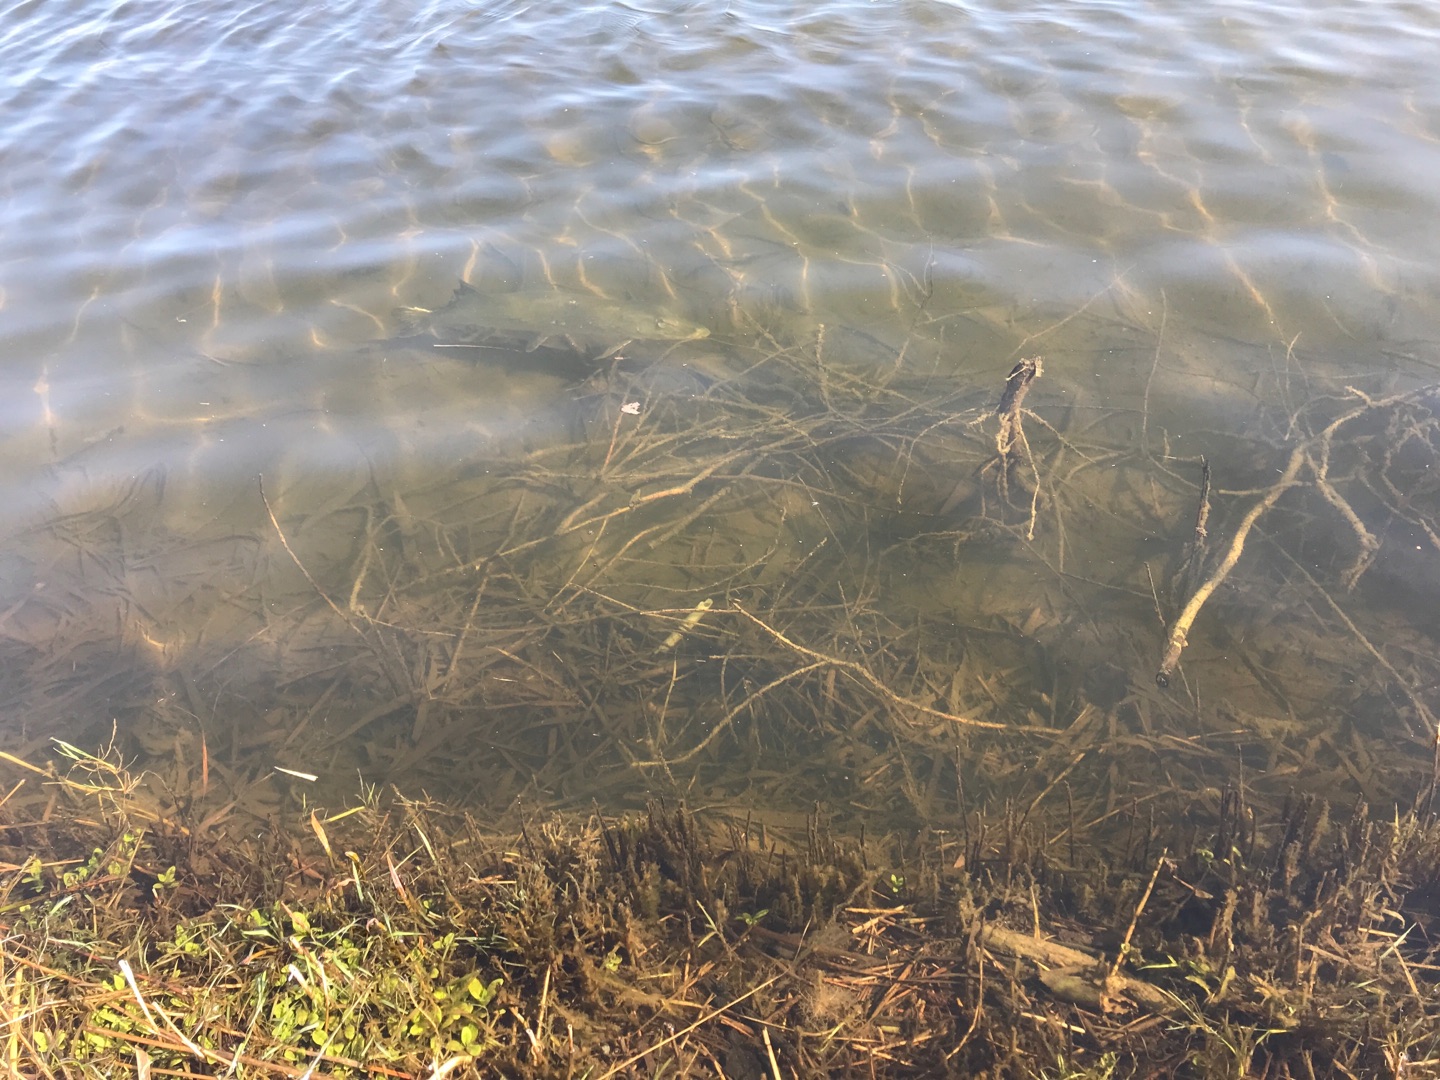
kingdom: Animalia
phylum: Chordata
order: Esociformes
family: Esocidae
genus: Esox
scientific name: Esox lucius
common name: Gedde
